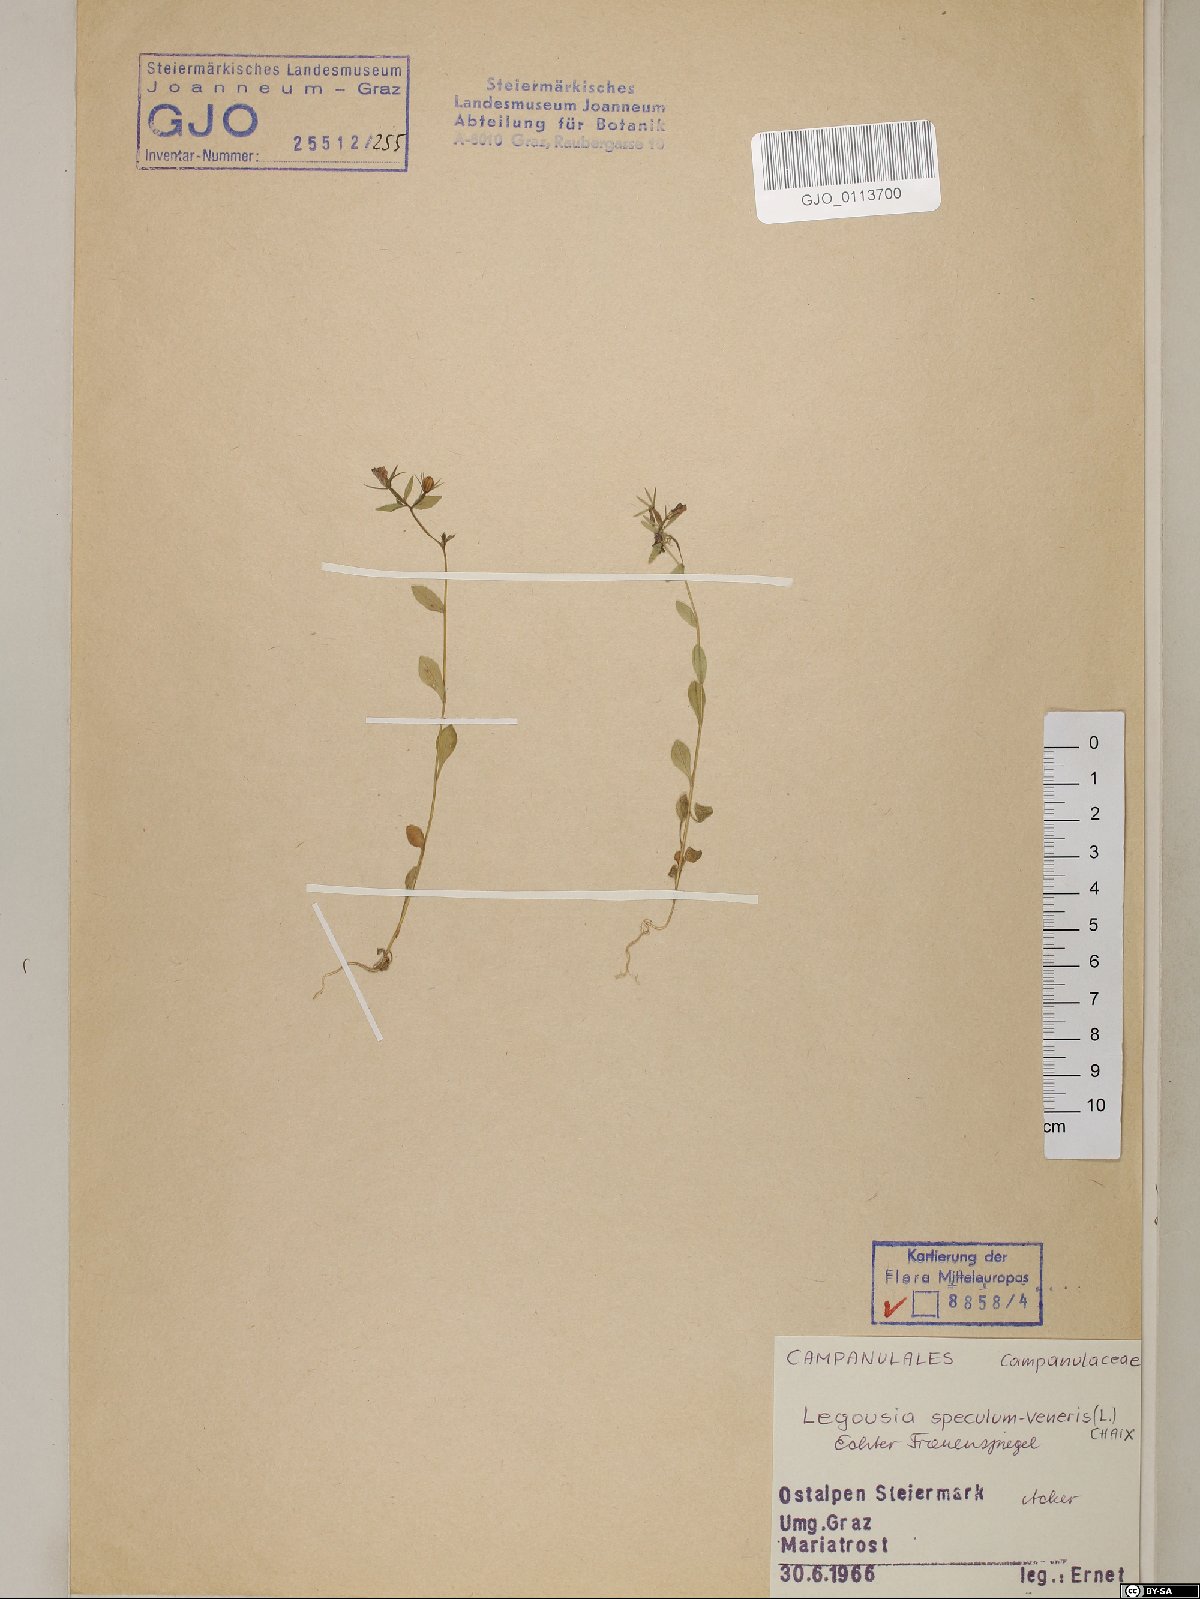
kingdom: Plantae
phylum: Tracheophyta
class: Magnoliopsida
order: Asterales
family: Campanulaceae
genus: Legousia
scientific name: Legousia speculum-veneris
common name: Large venus's-looking-glass
